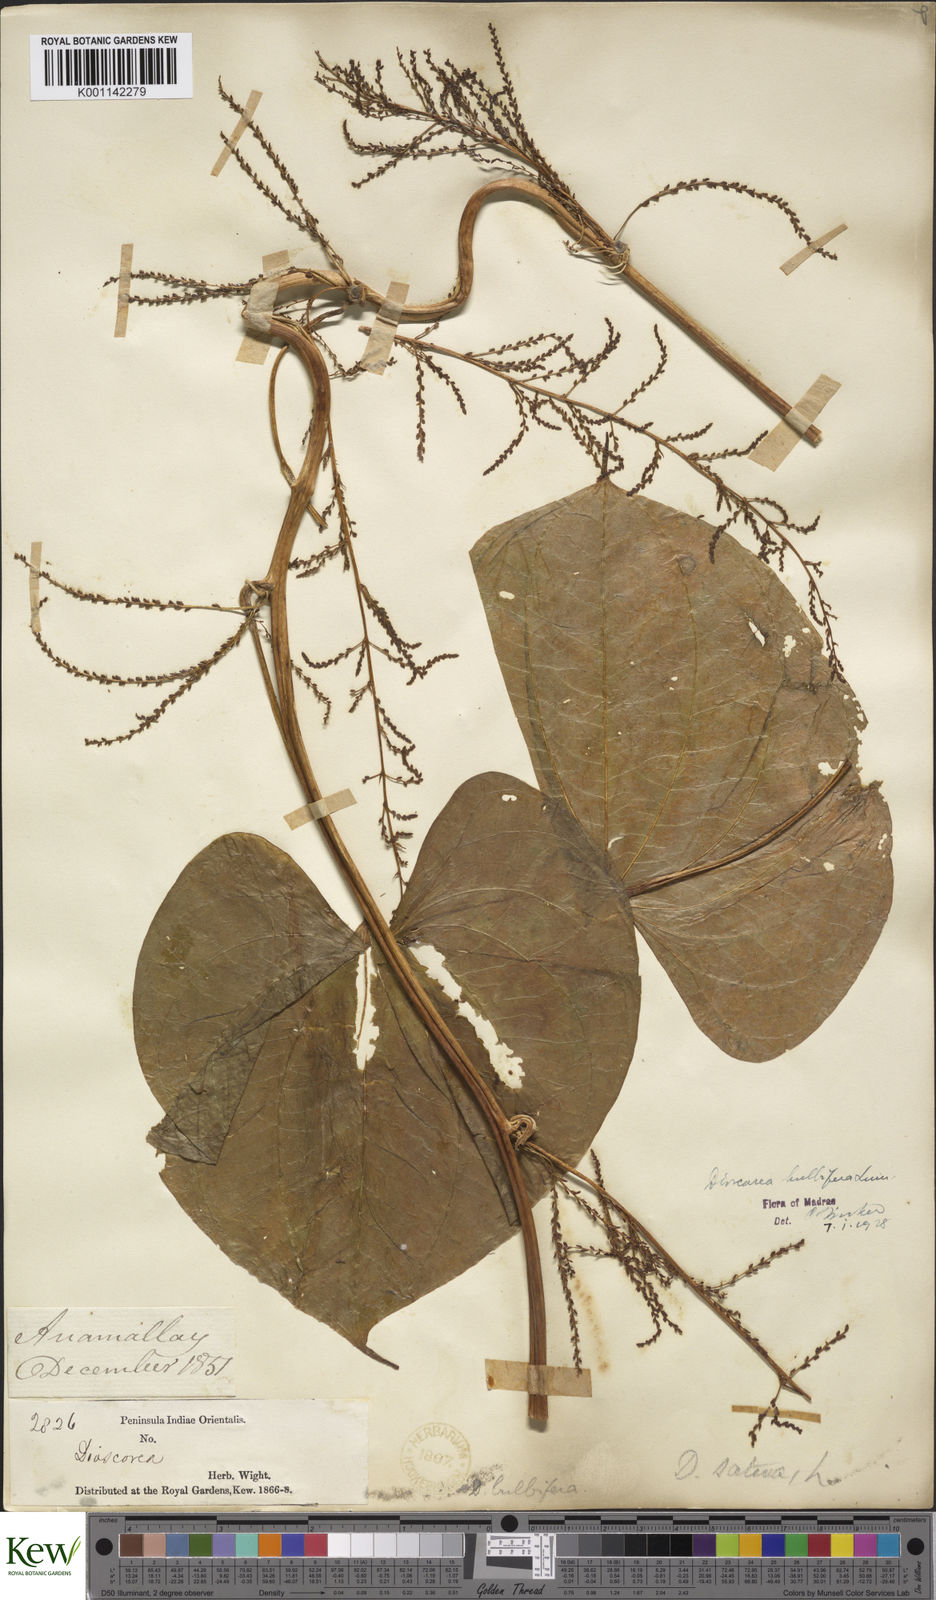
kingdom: Plantae
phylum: Tracheophyta
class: Liliopsida
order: Dioscoreales
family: Dioscoreaceae
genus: Dioscorea
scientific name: Dioscorea bulbifera
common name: Air yam
